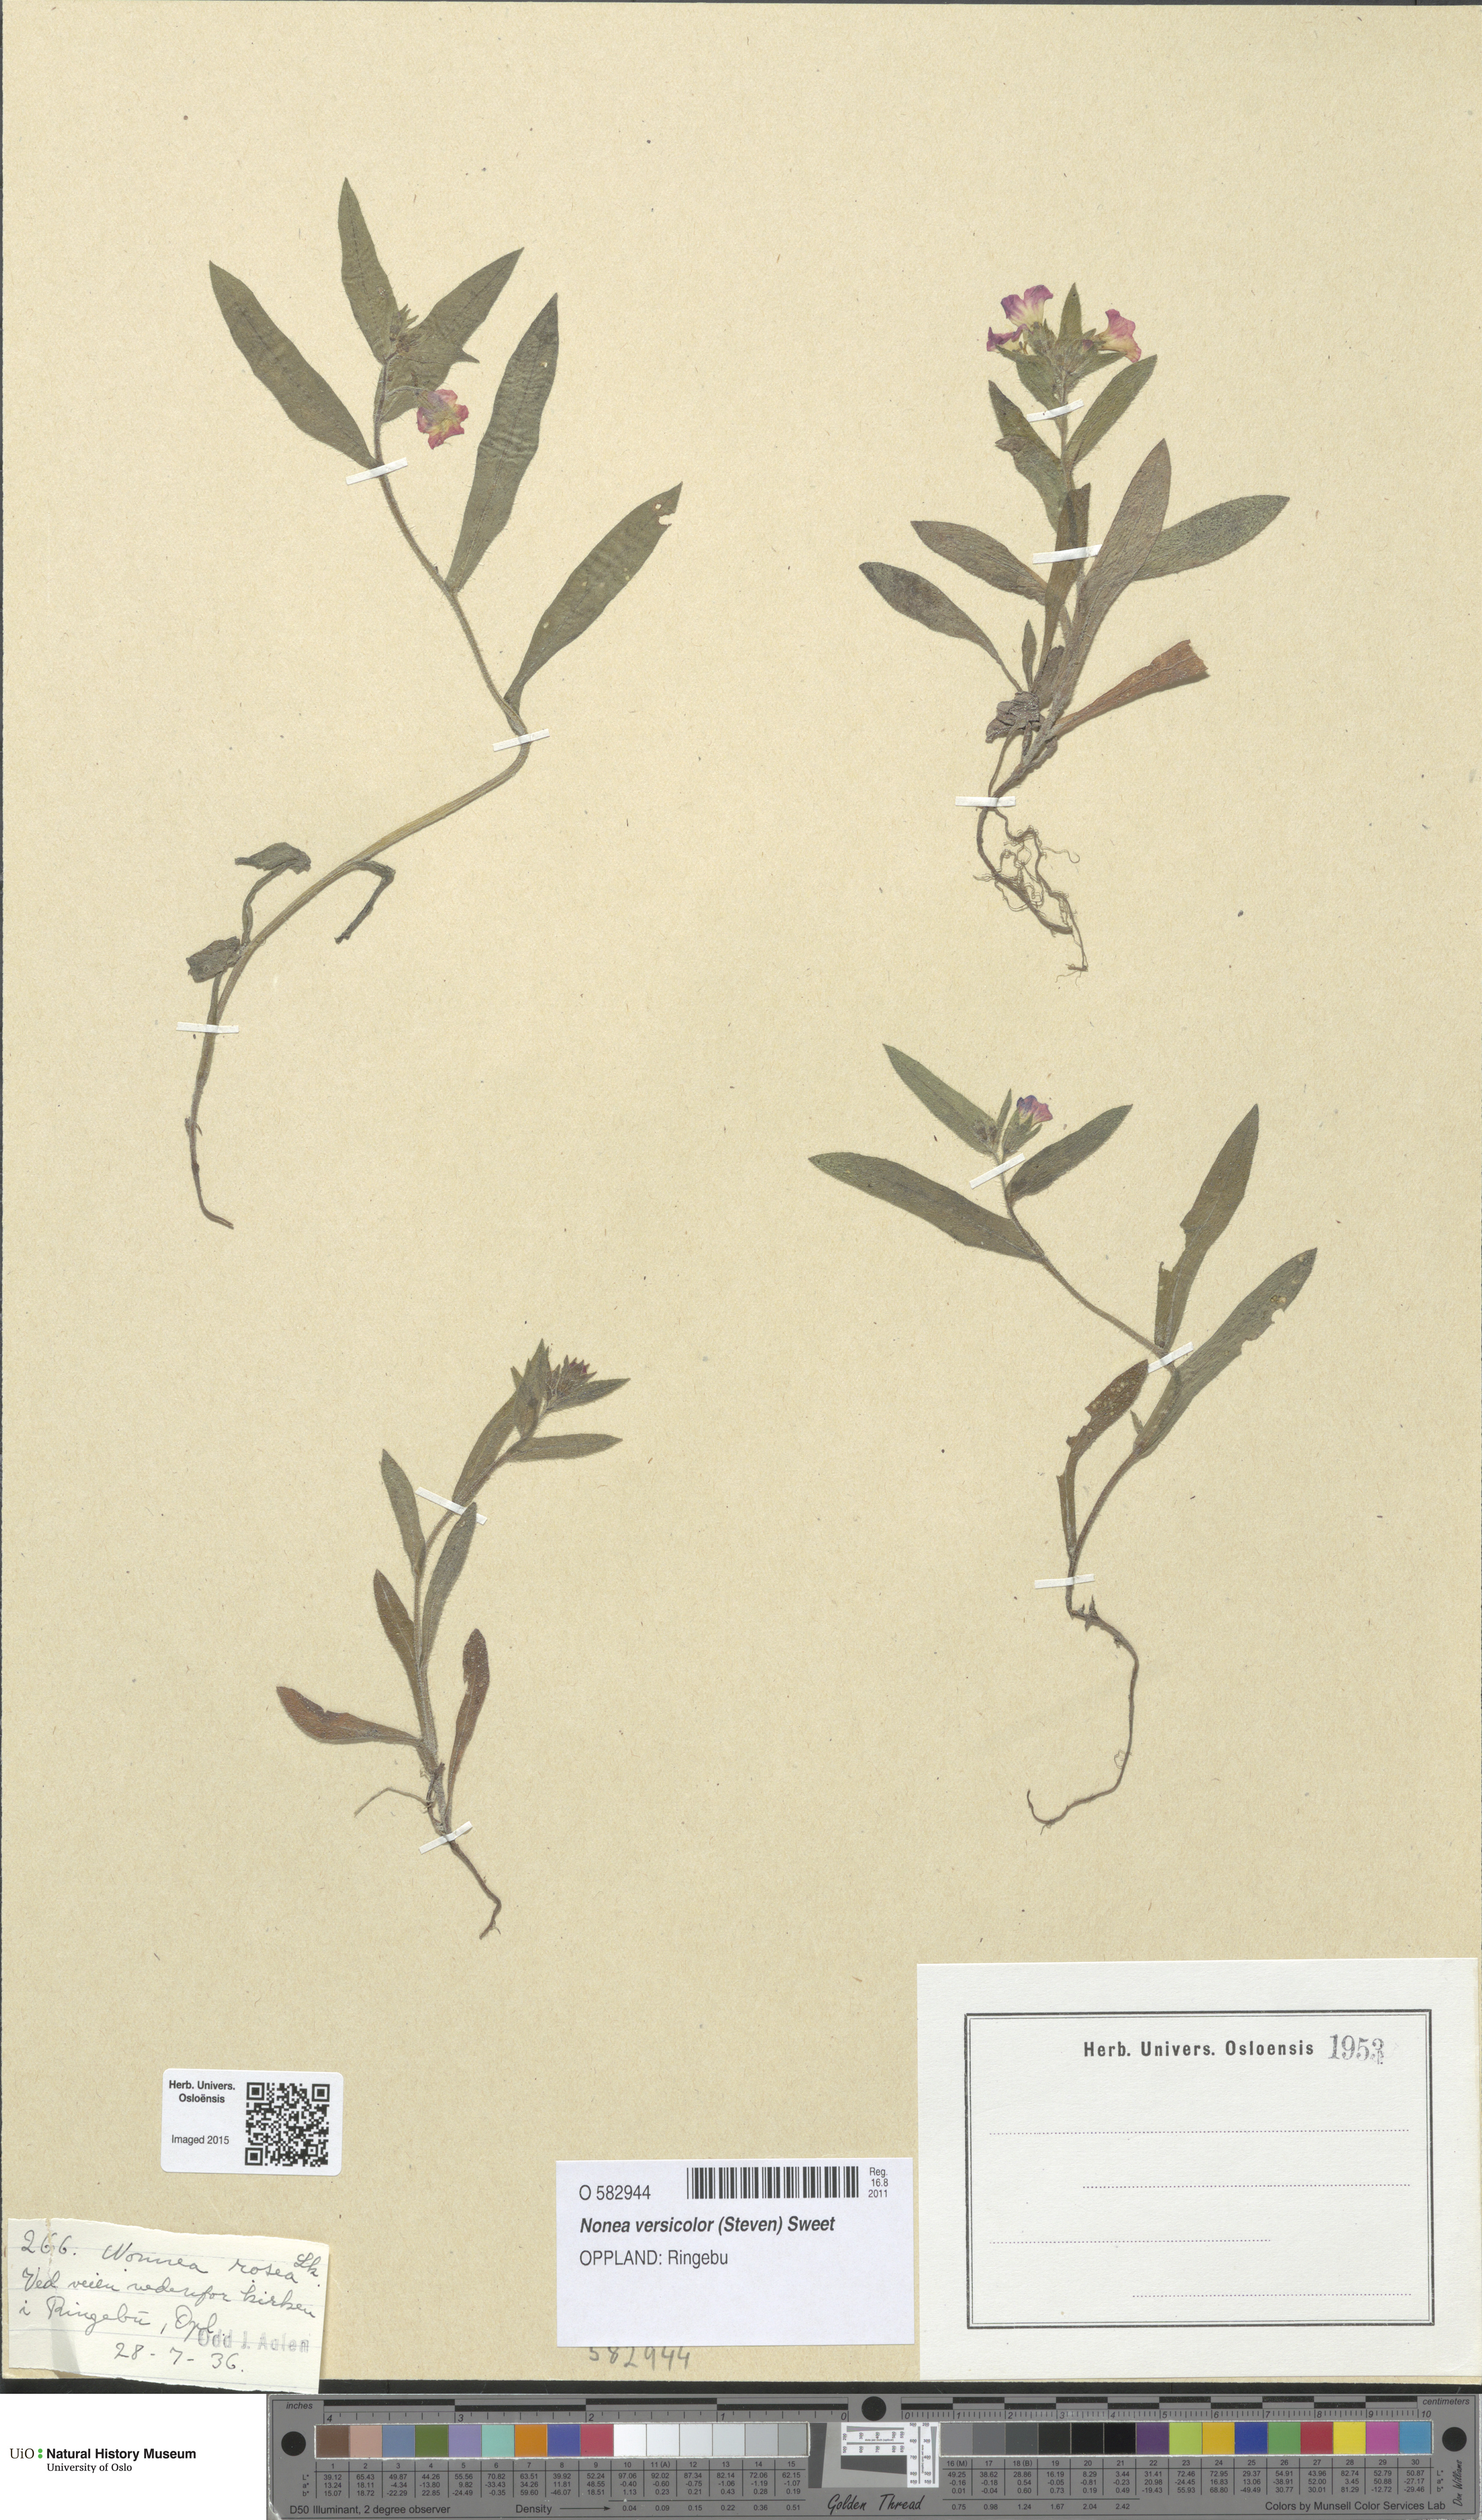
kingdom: Plantae
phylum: Tracheophyta
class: Magnoliopsida
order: Boraginales
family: Boraginaceae
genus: Nonea
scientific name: Nonea versicolor
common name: Varied monkswort
